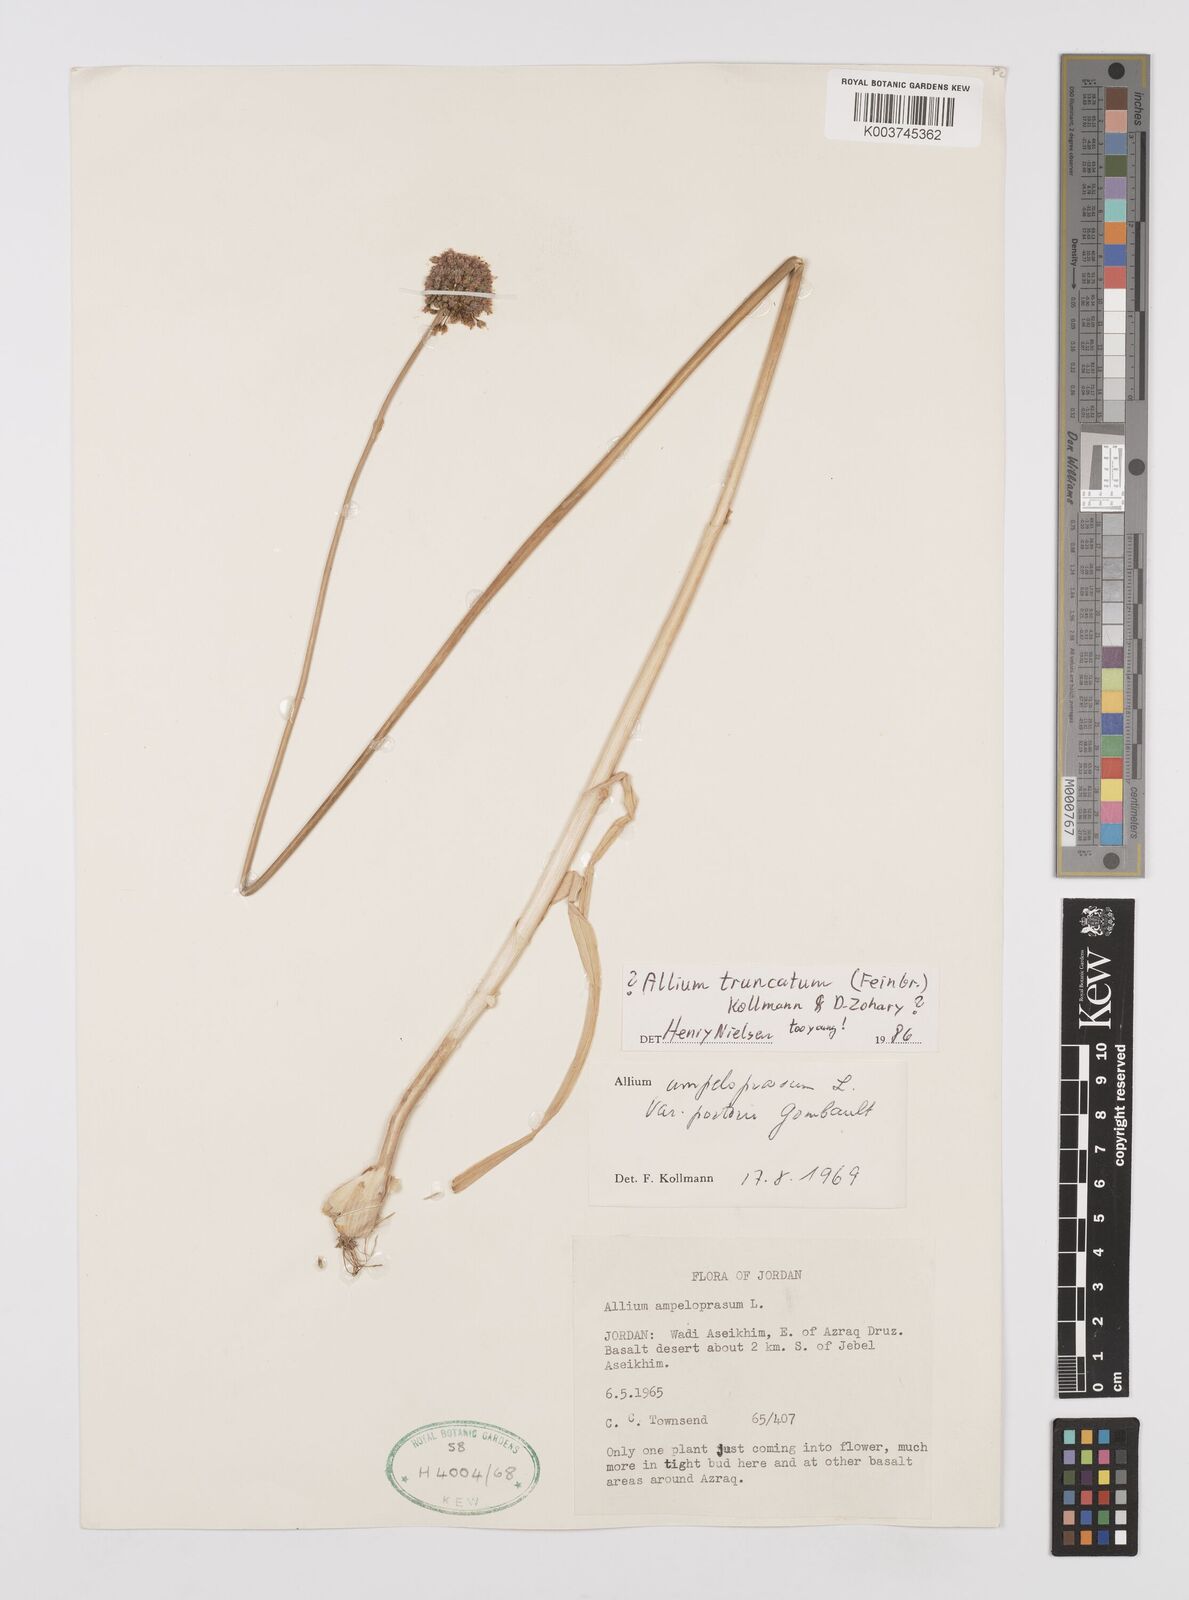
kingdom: Plantae
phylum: Tracheophyta
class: Liliopsida
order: Asparagales
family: Amaryllidaceae
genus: Allium
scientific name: Allium ampeloprasum
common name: Wild leek
